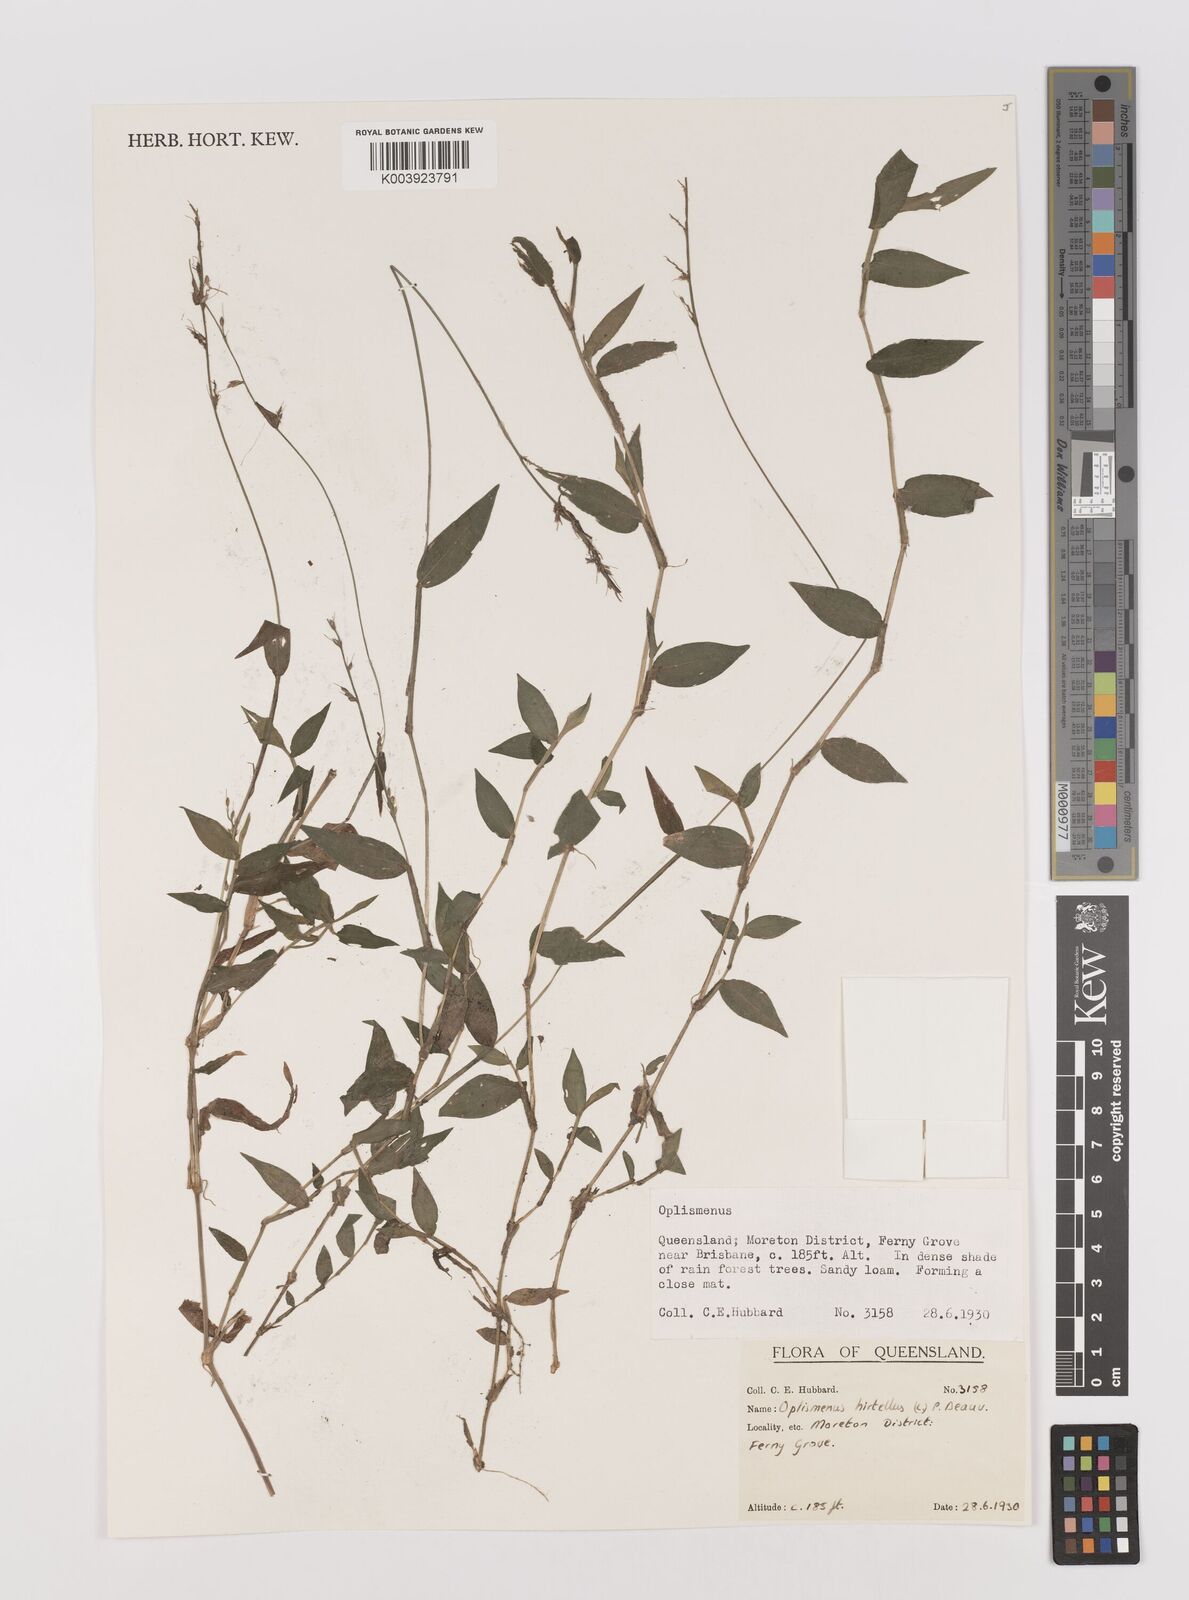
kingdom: Plantae
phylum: Tracheophyta
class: Liliopsida
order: Poales
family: Poaceae
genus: Oplismenus
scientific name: Oplismenus hirtellus
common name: Basketgrass
